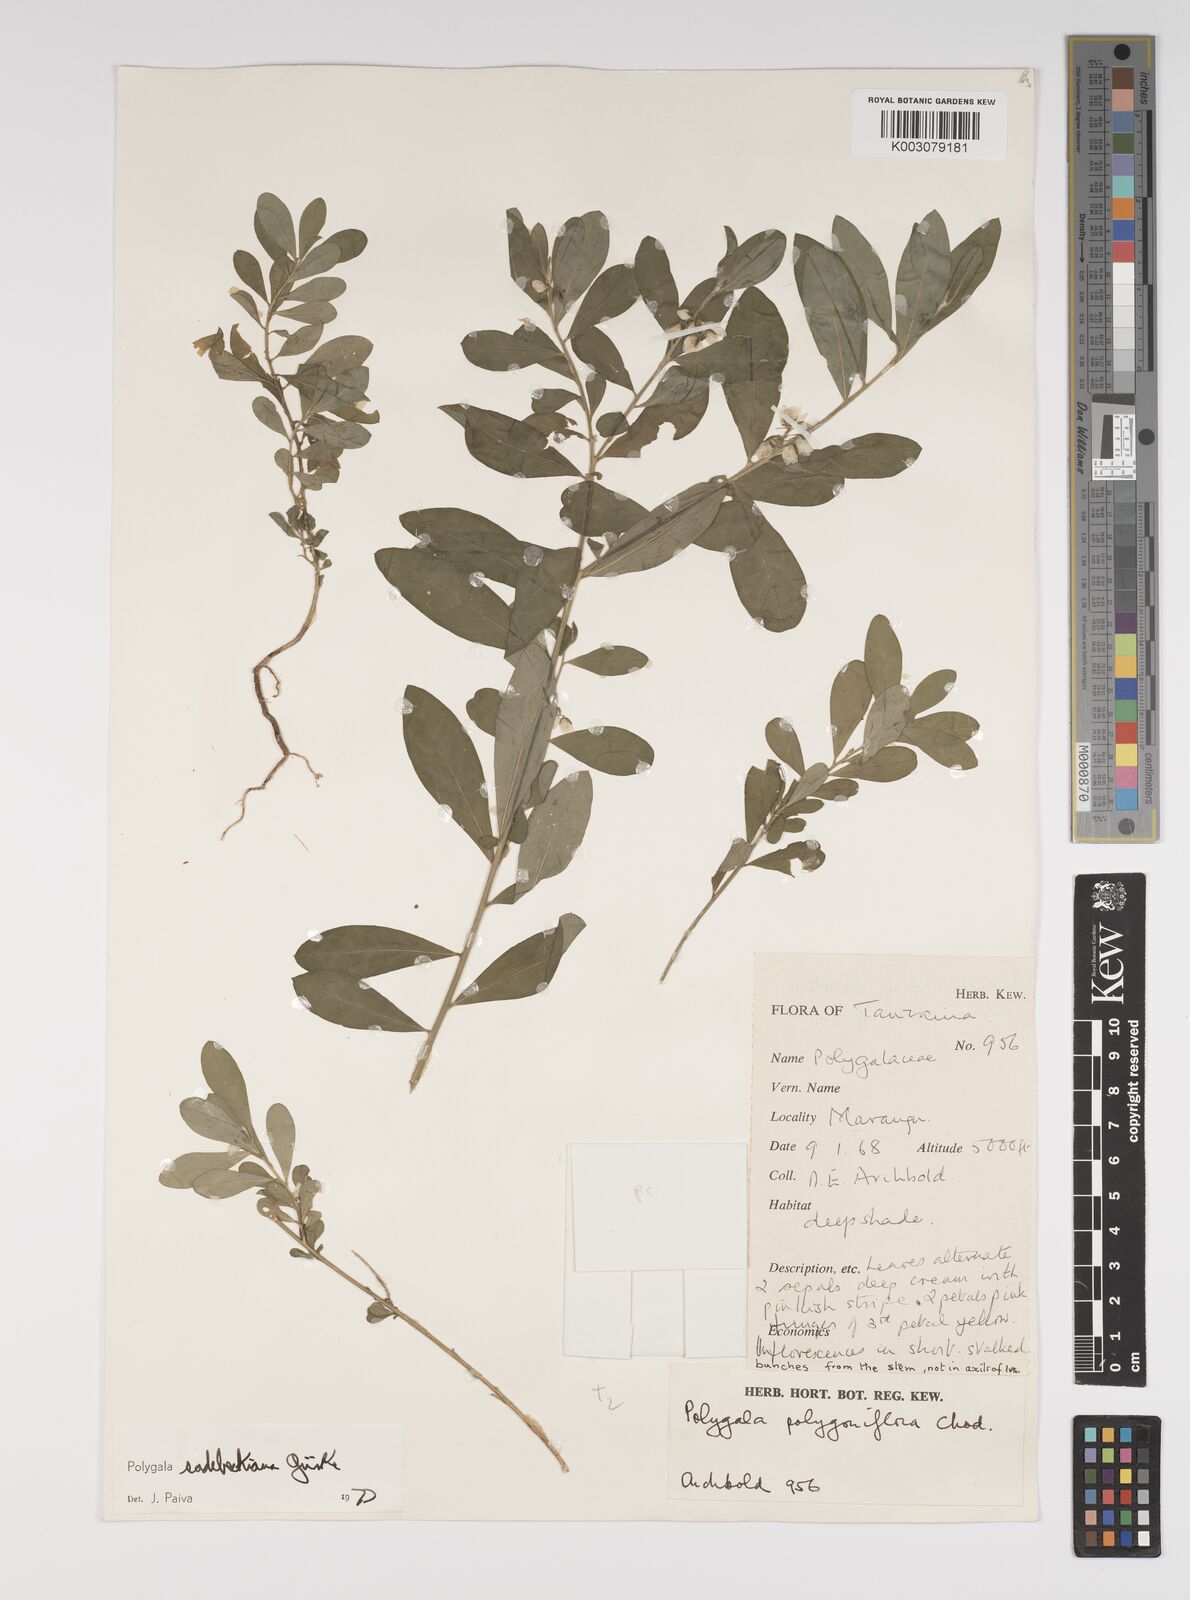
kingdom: Plantae
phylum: Tracheophyta
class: Magnoliopsida
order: Fabales
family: Polygalaceae
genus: Polygala
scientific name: Polygala sadebeckiana
